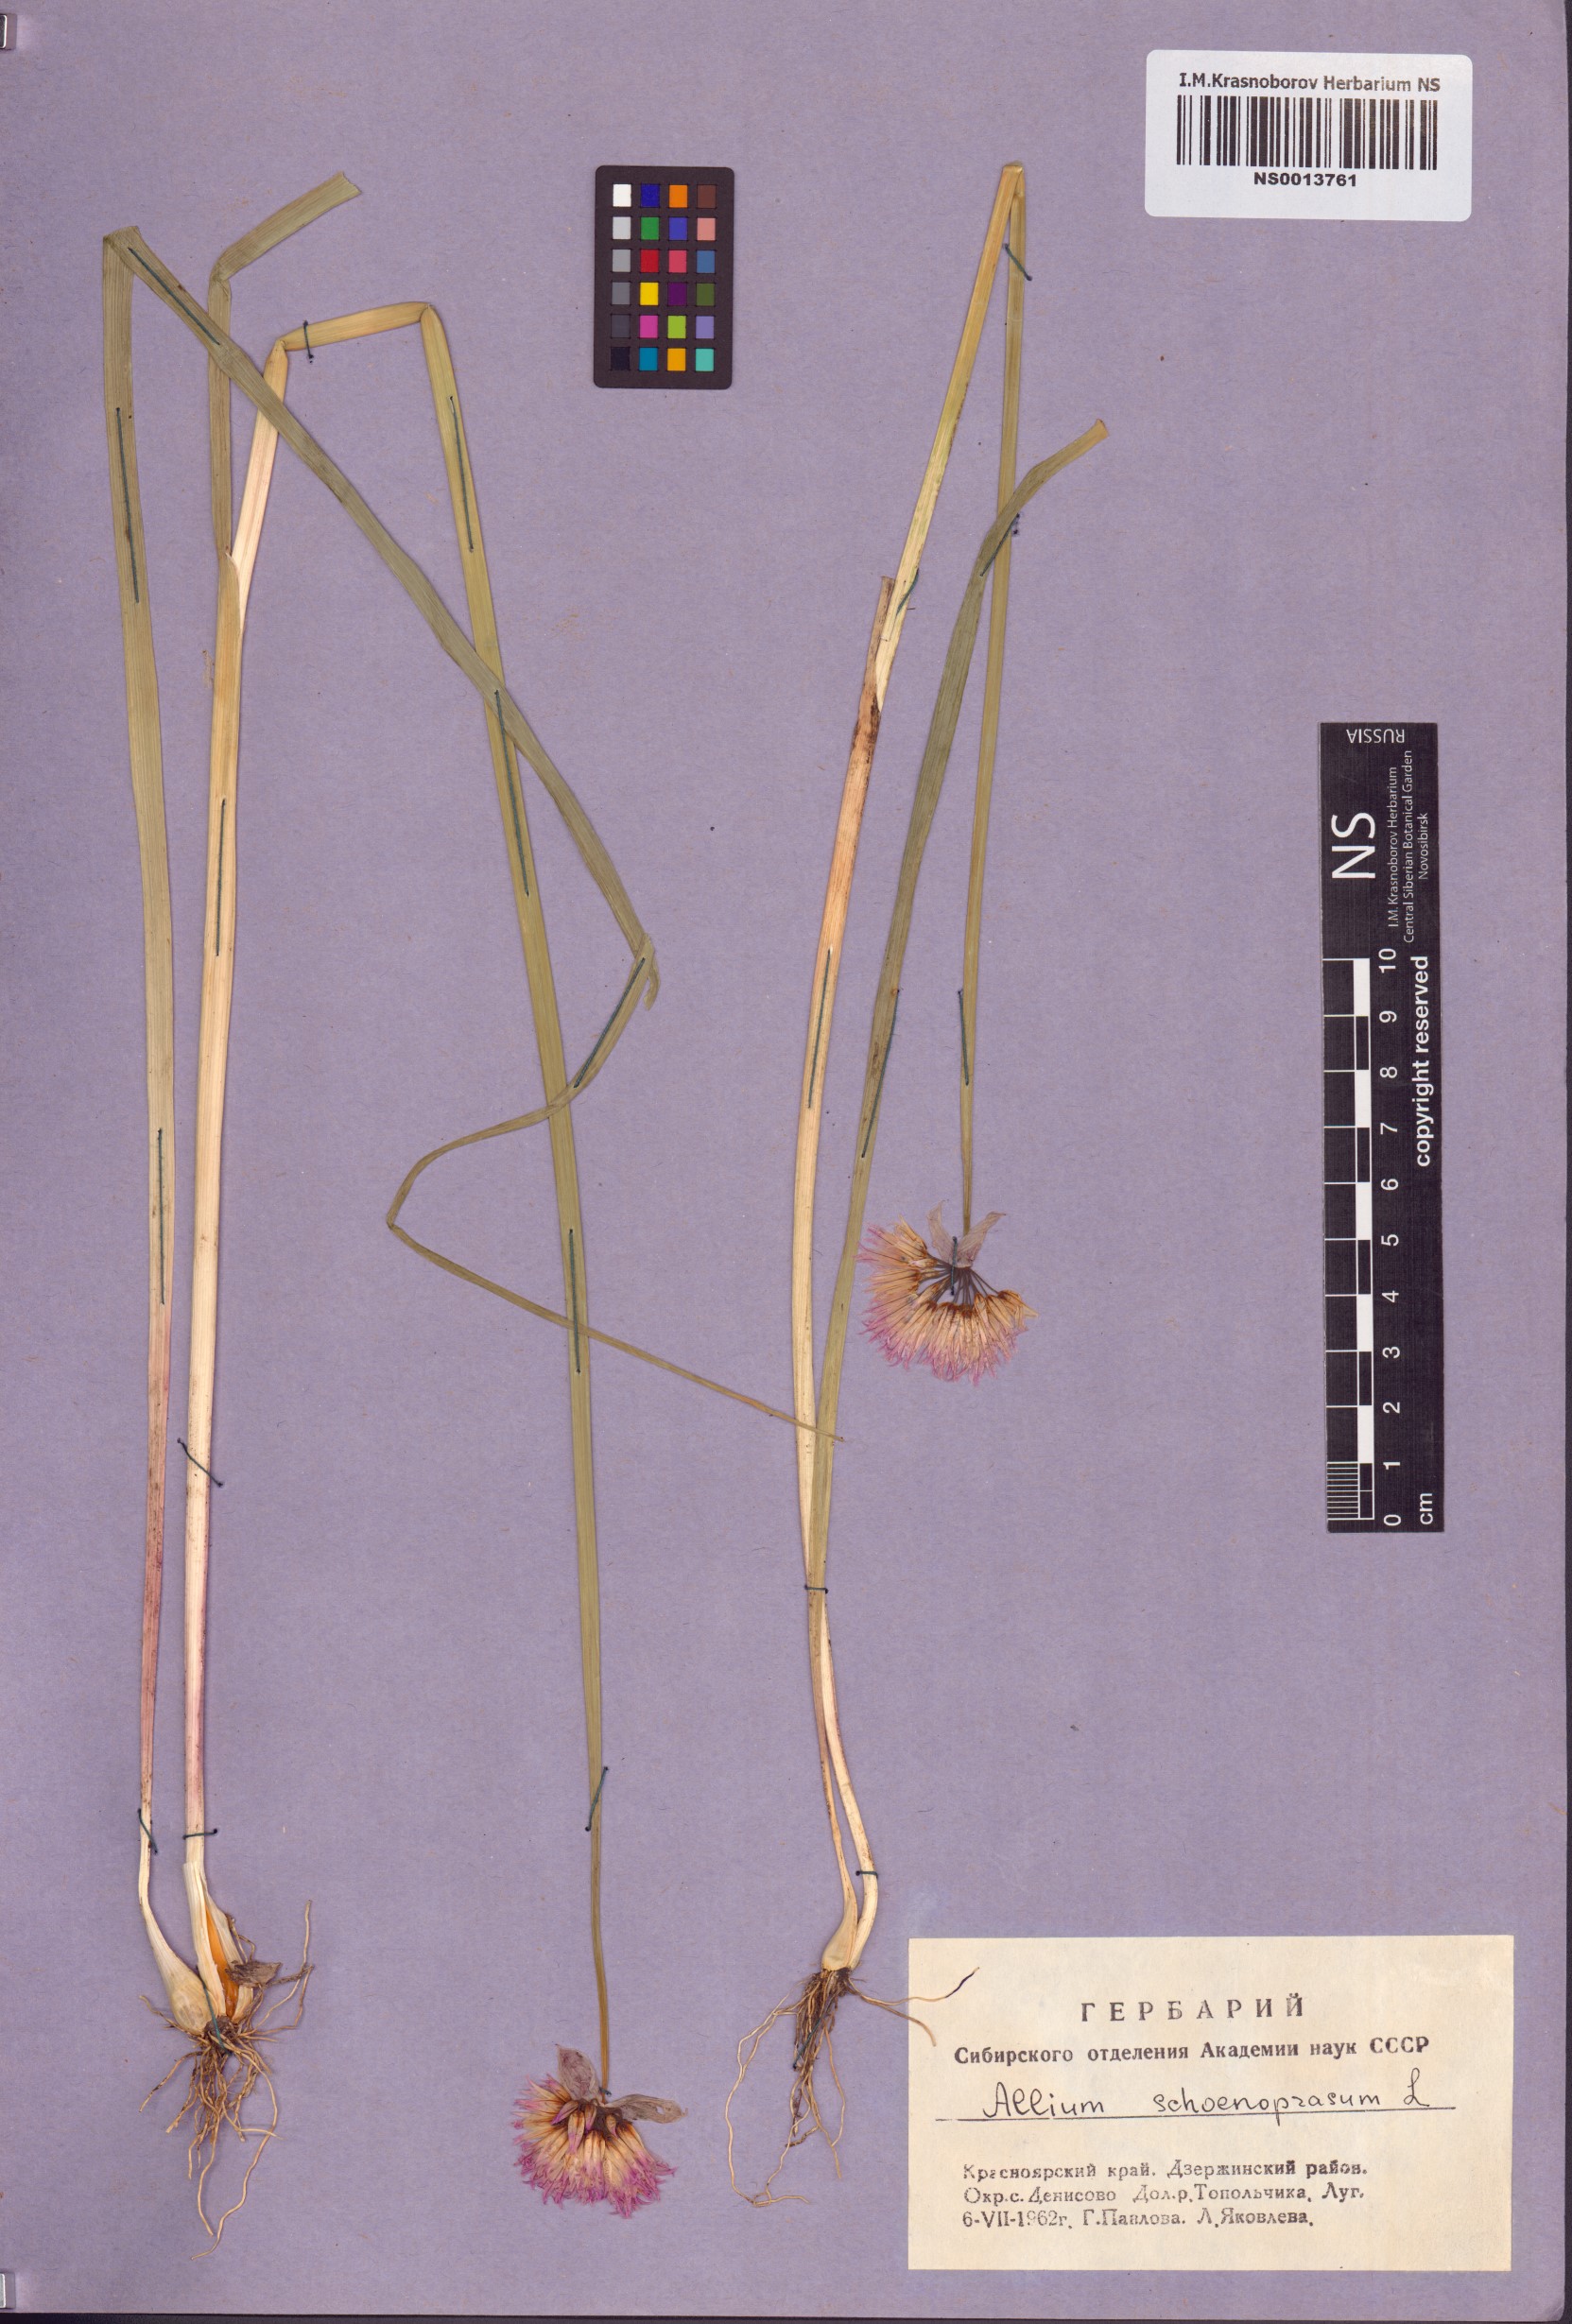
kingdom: Plantae
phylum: Tracheophyta
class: Liliopsida
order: Asparagales
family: Amaryllidaceae
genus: Allium
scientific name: Allium schoenoprasum
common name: Chives
